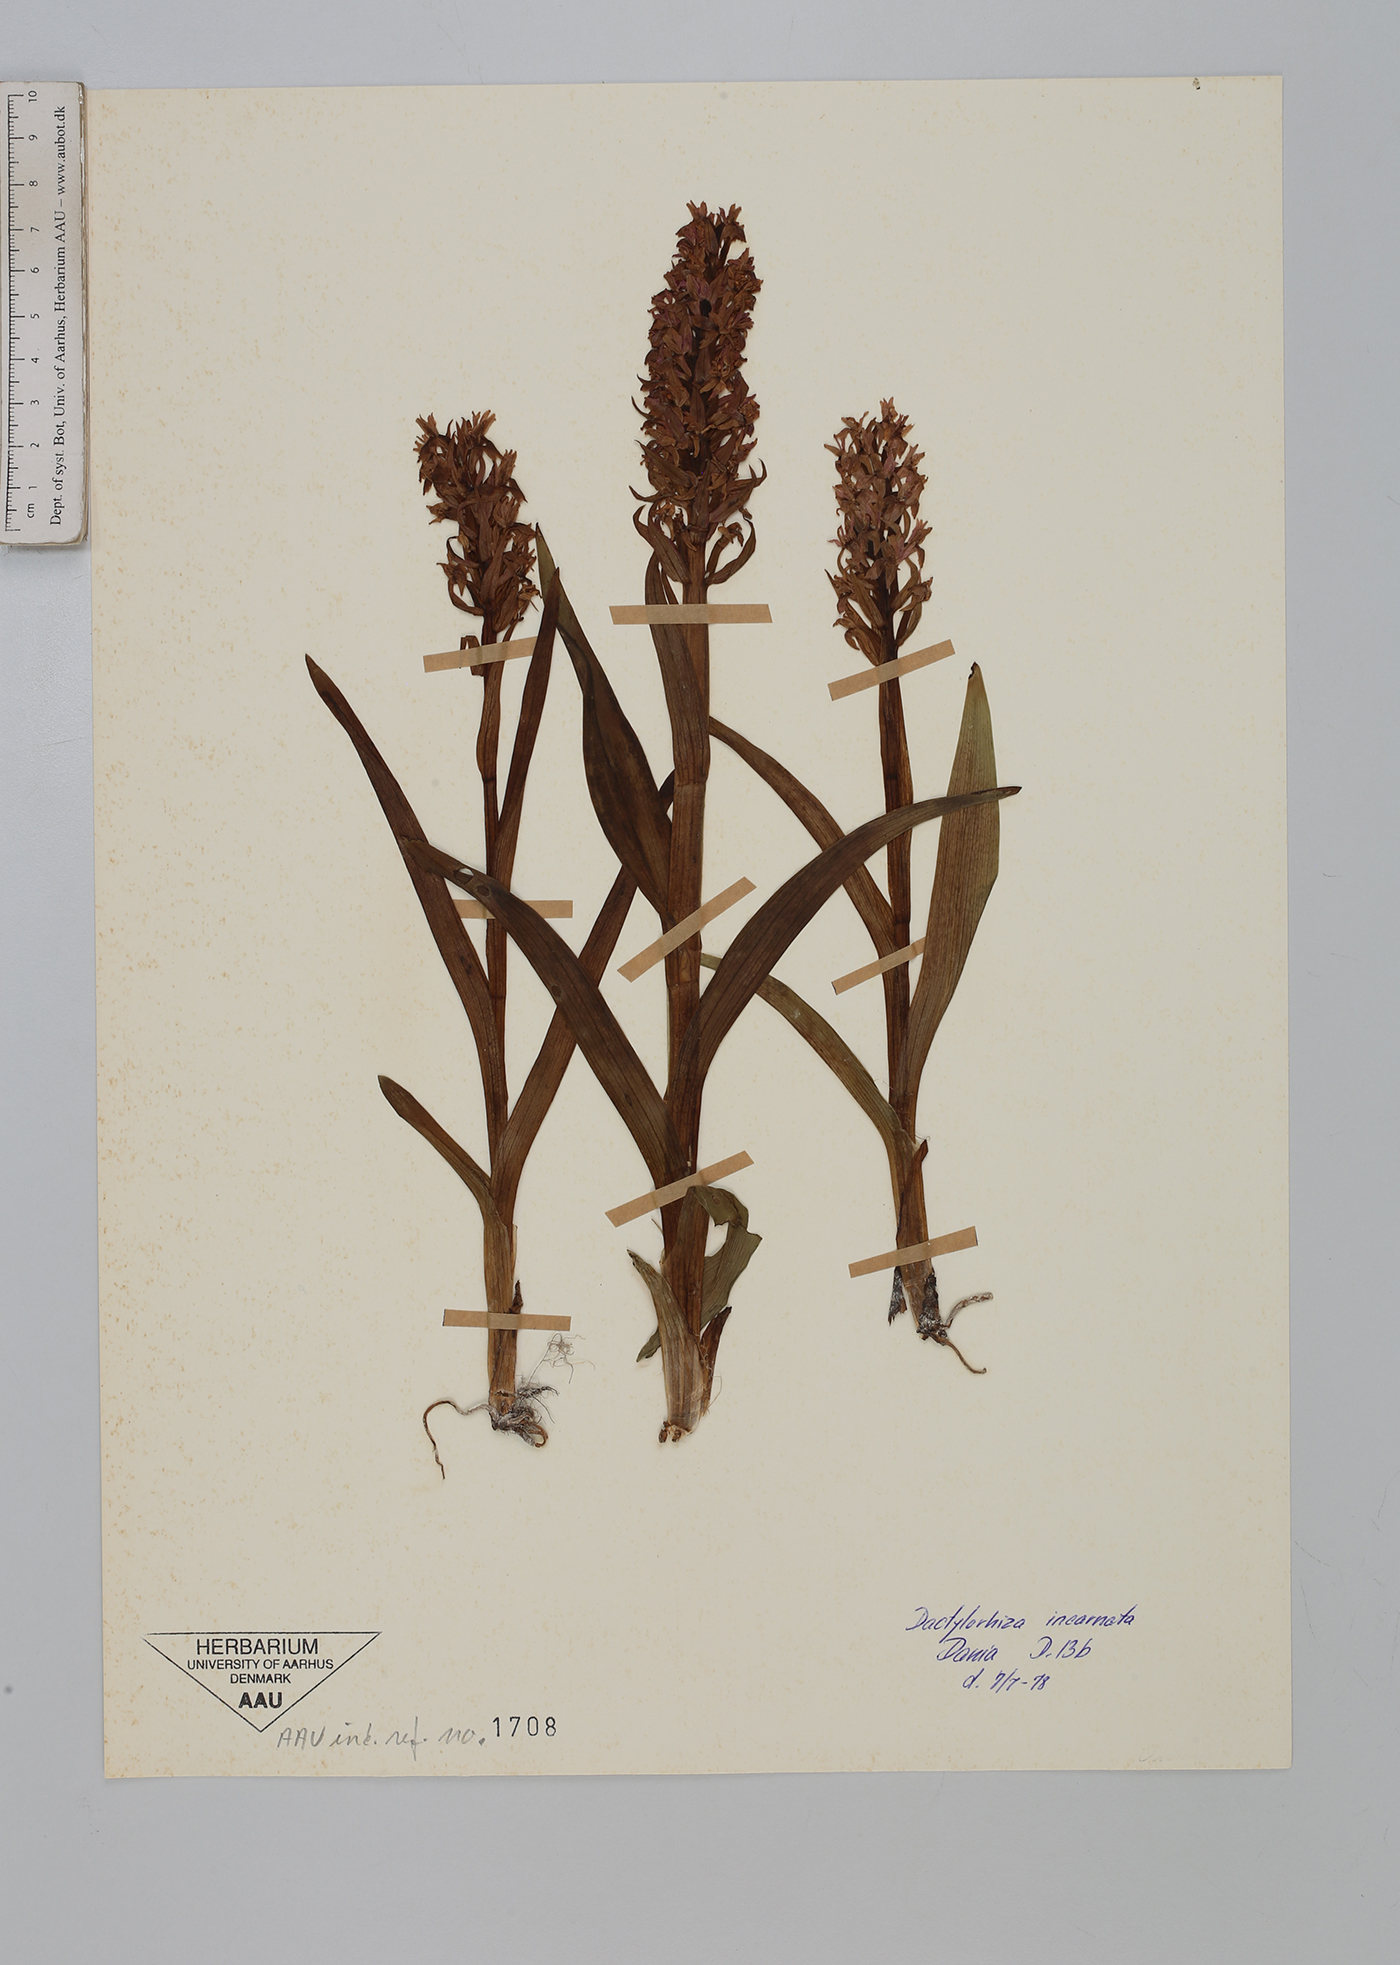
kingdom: Plantae
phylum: Tracheophyta
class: Liliopsida
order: Asparagales
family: Orchidaceae
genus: Dactylorhiza
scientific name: Dactylorhiza incarnata
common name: Early marsh-orchid
